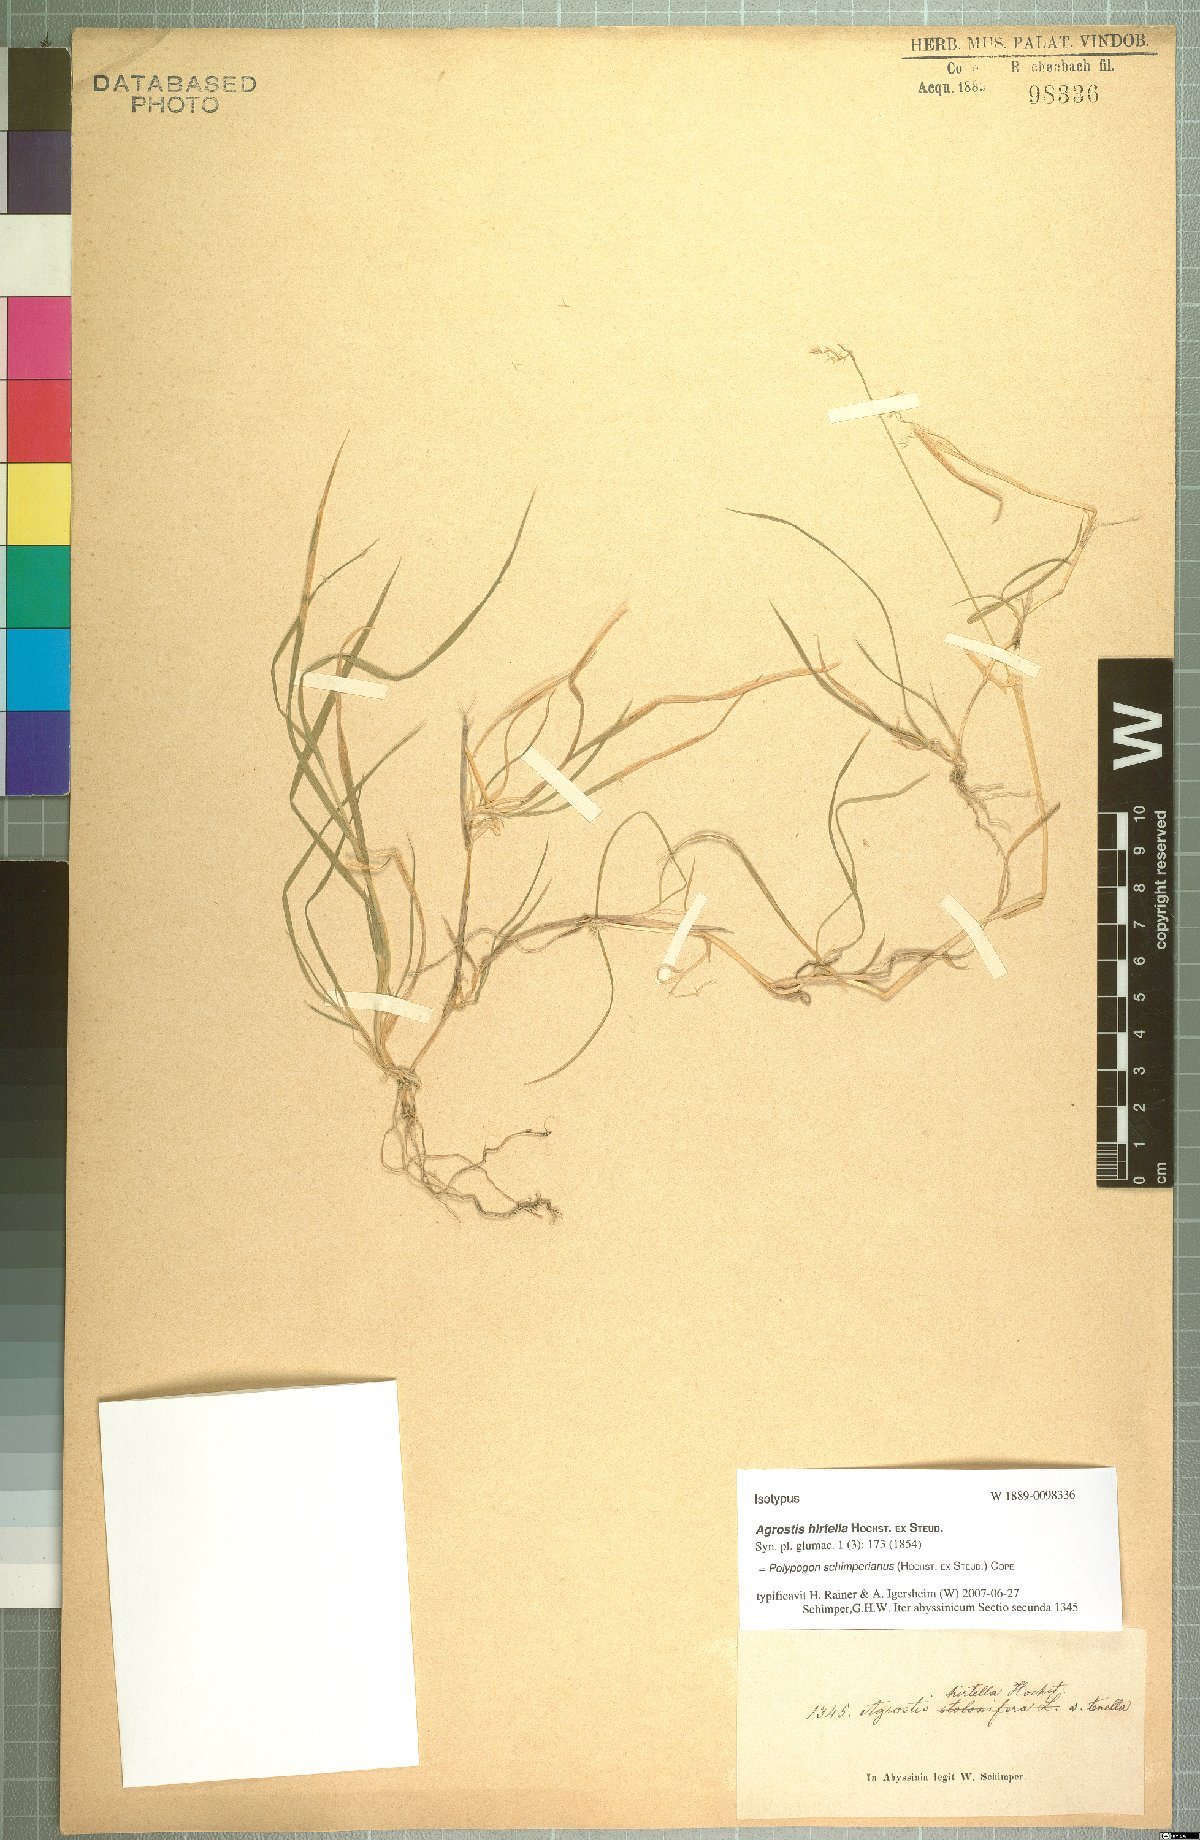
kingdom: Plantae
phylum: Tracheophyta
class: Liliopsida
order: Poales
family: Poaceae
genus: Polypogon
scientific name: Polypogon schimperianus
